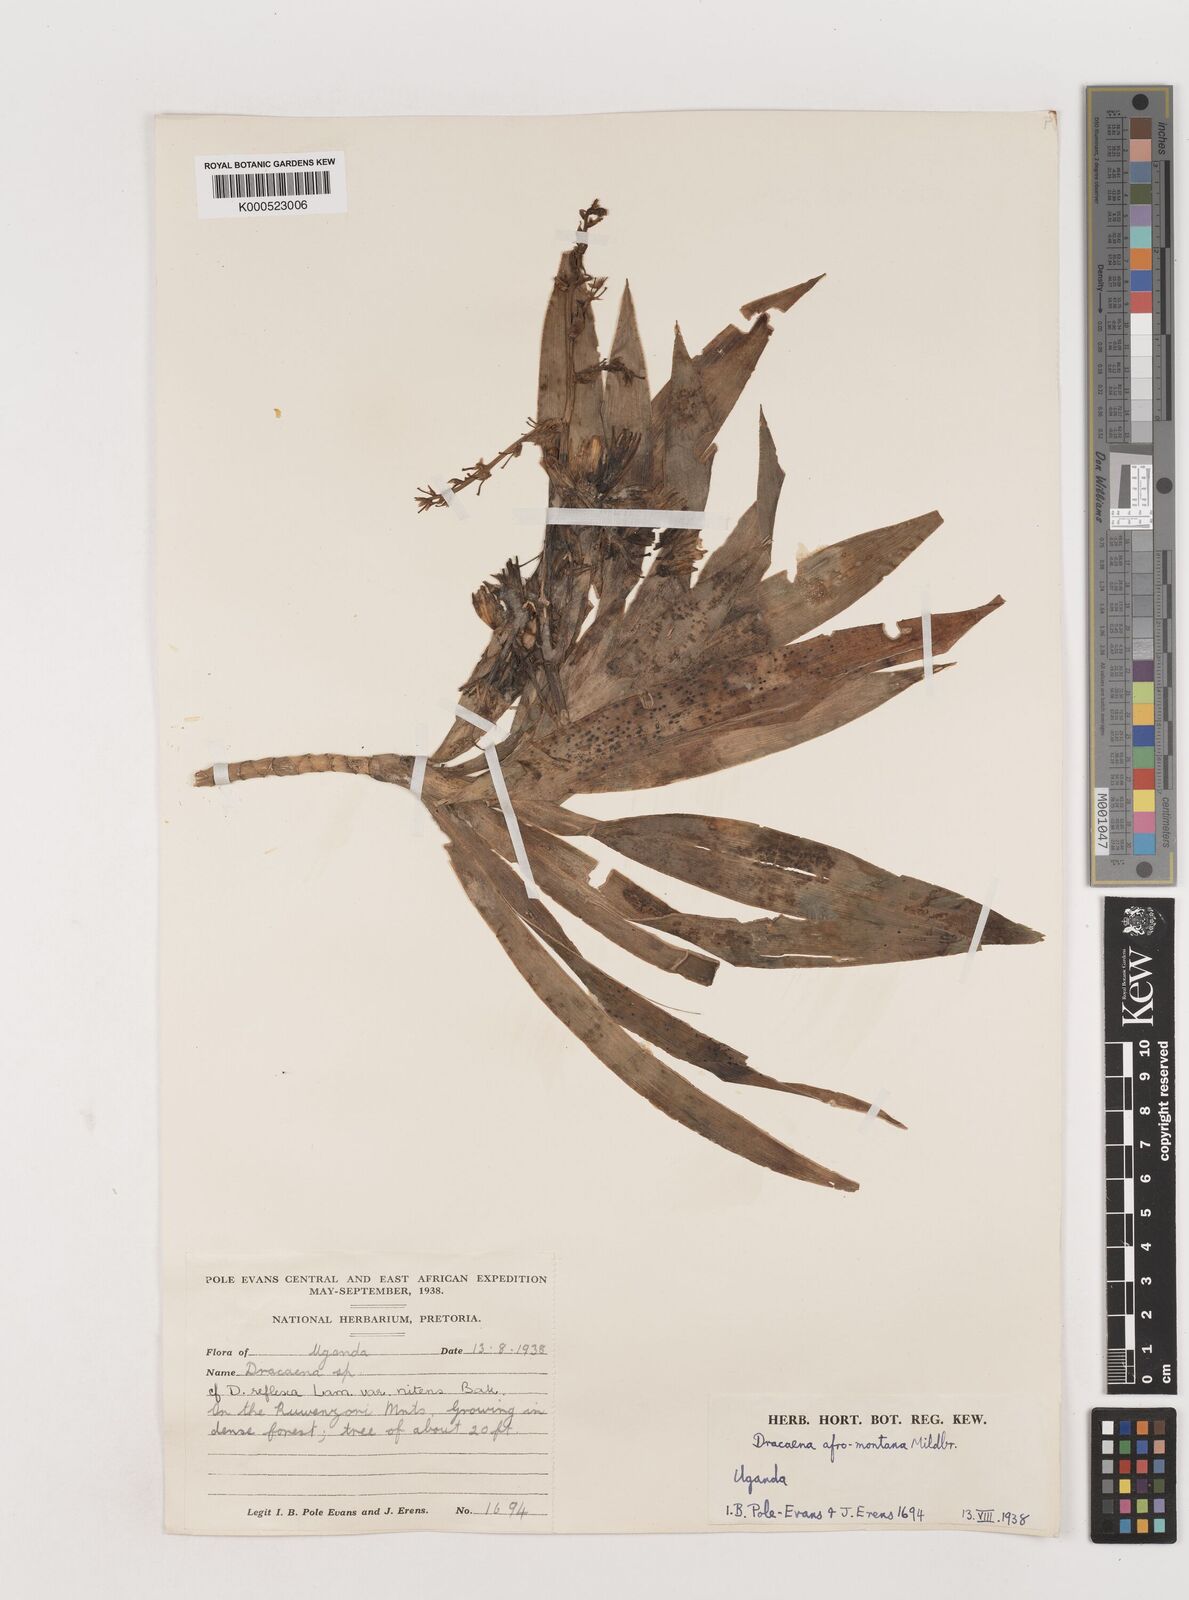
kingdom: Plantae
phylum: Tracheophyta
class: Liliopsida
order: Asparagales
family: Asparagaceae
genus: Dracaena
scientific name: Dracaena afromontana
